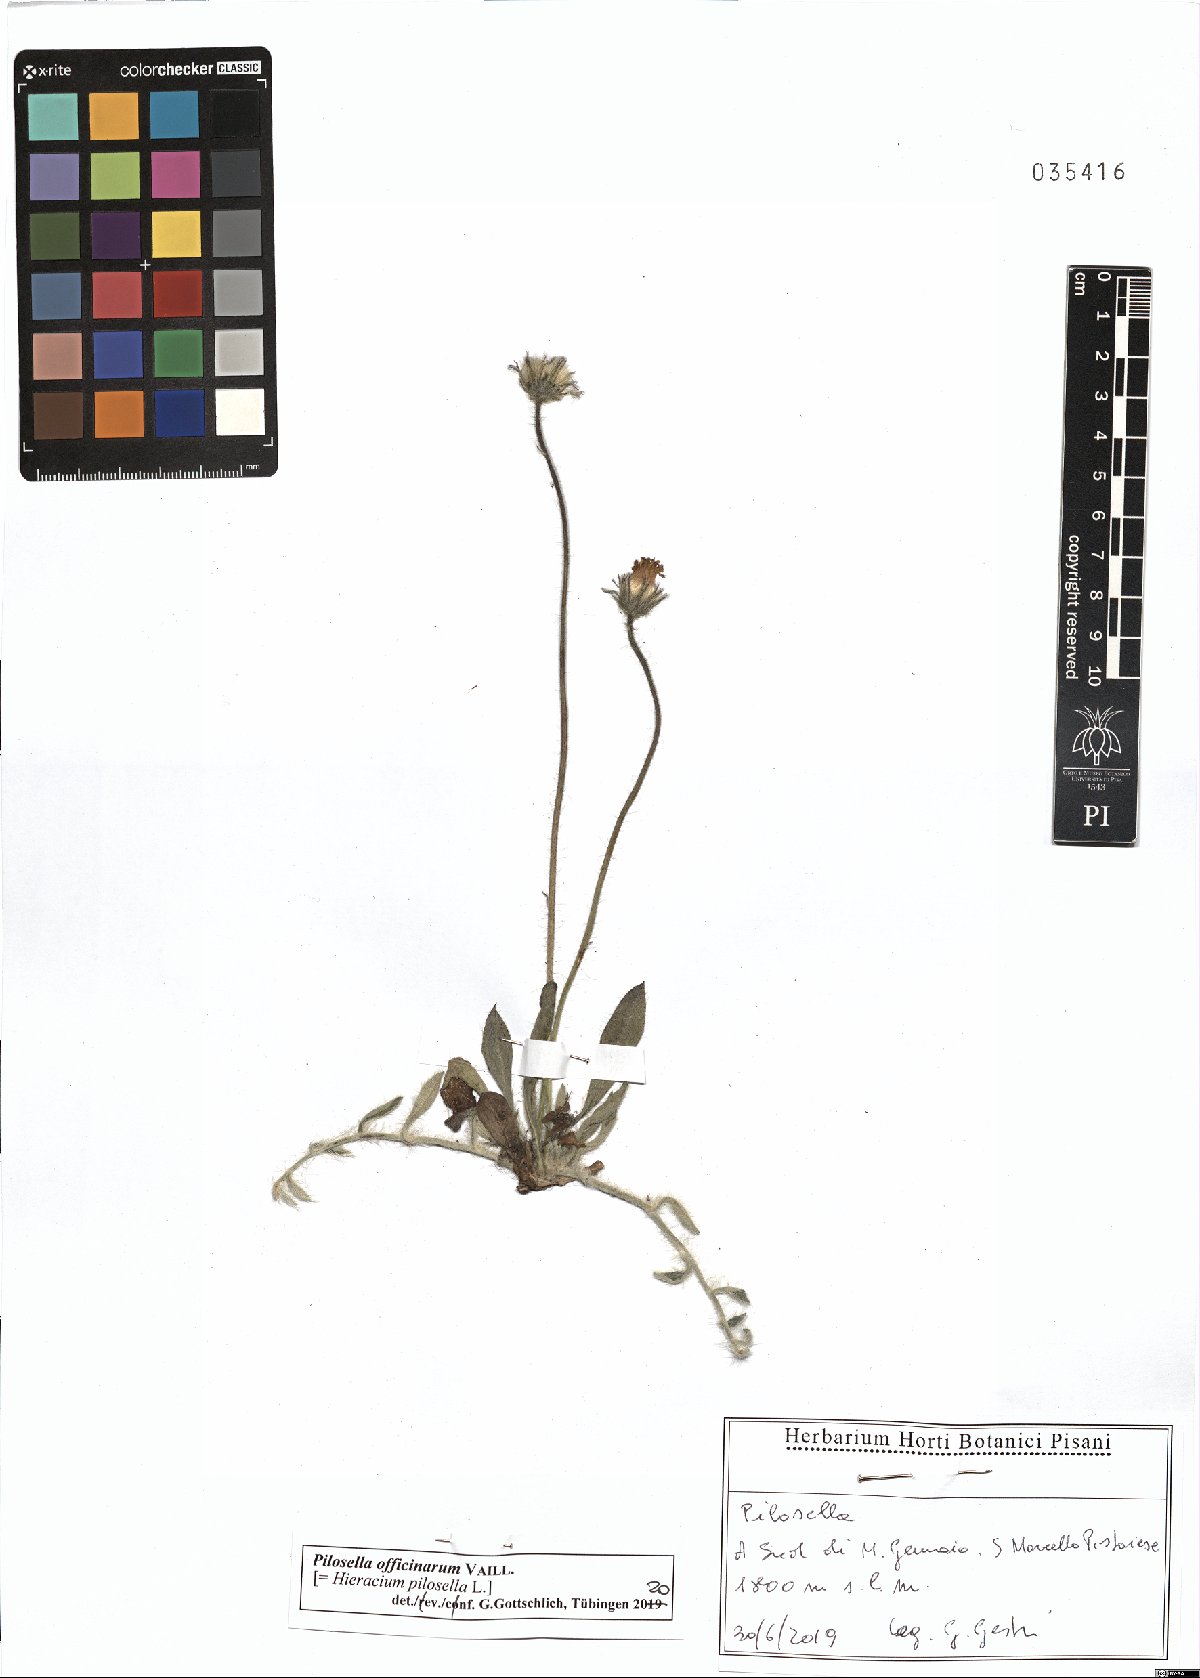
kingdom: Plantae
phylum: Tracheophyta
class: Magnoliopsida
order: Asterales
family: Asteraceae
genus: Pilosella
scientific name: Pilosella officinarum
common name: Mouse-ear hawkweed
